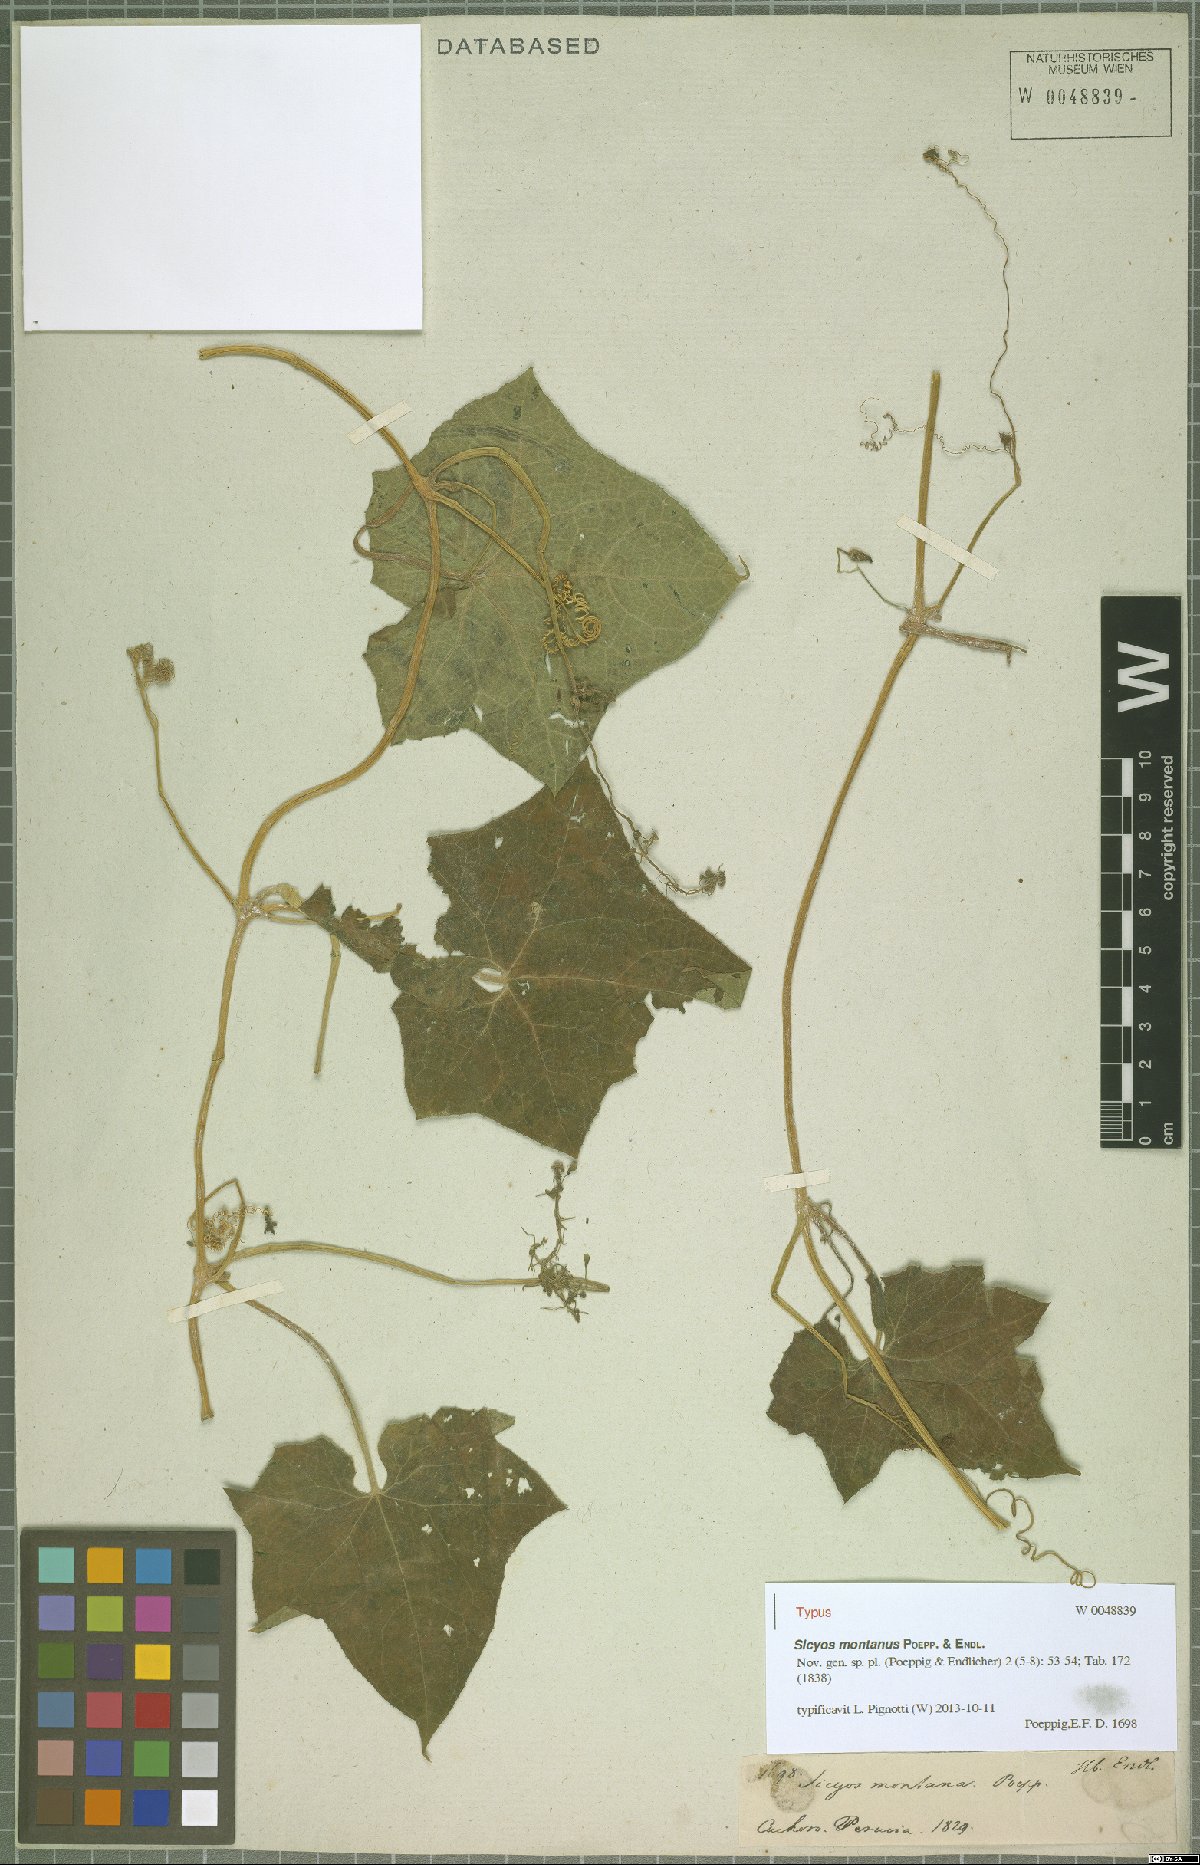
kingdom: Plantae
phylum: Tracheophyta
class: Magnoliopsida
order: Cucurbitales
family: Cucurbitaceae
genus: Sicyos
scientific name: Sicyos montanus
